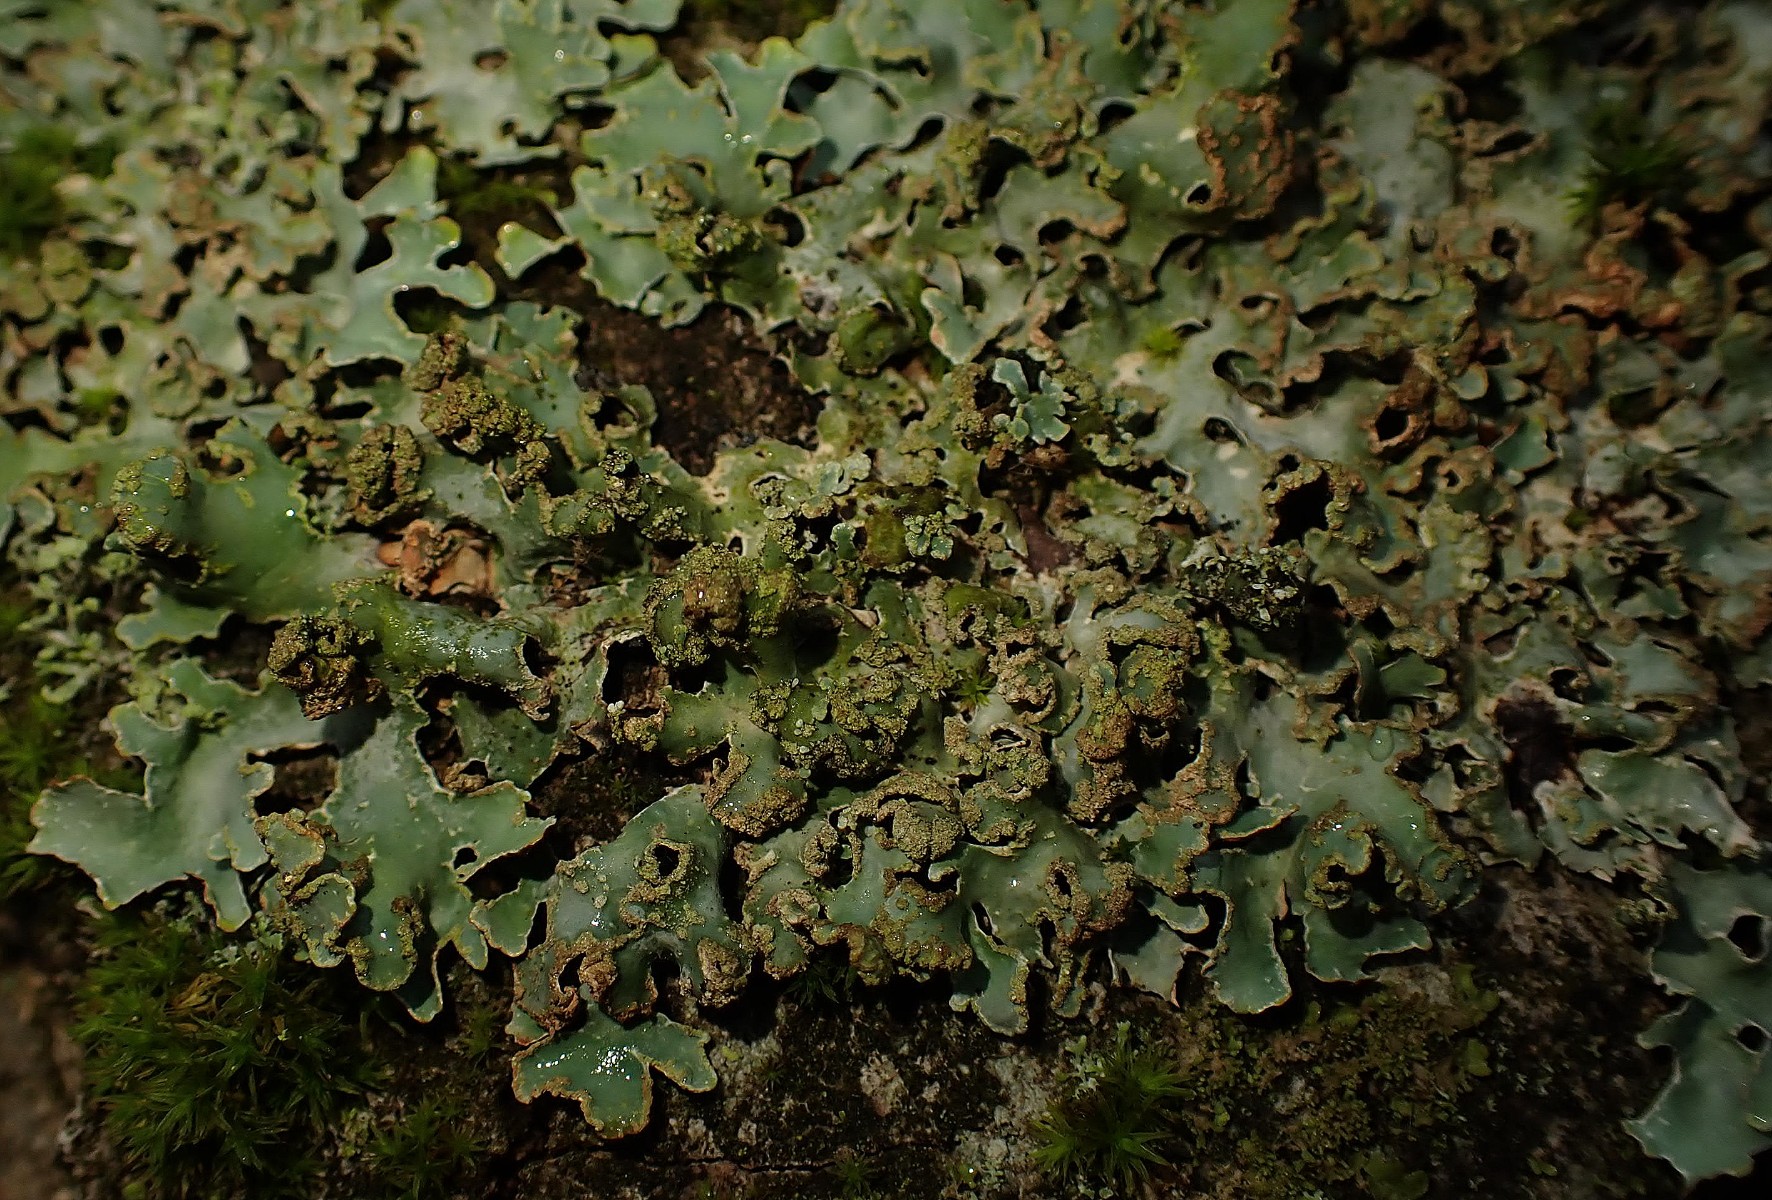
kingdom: Fungi
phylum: Ascomycota
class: Lecanoromycetes
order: Lecanorales
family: Parmeliaceae
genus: Parmelia
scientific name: Parmelia sulcata
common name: rynket skållav
